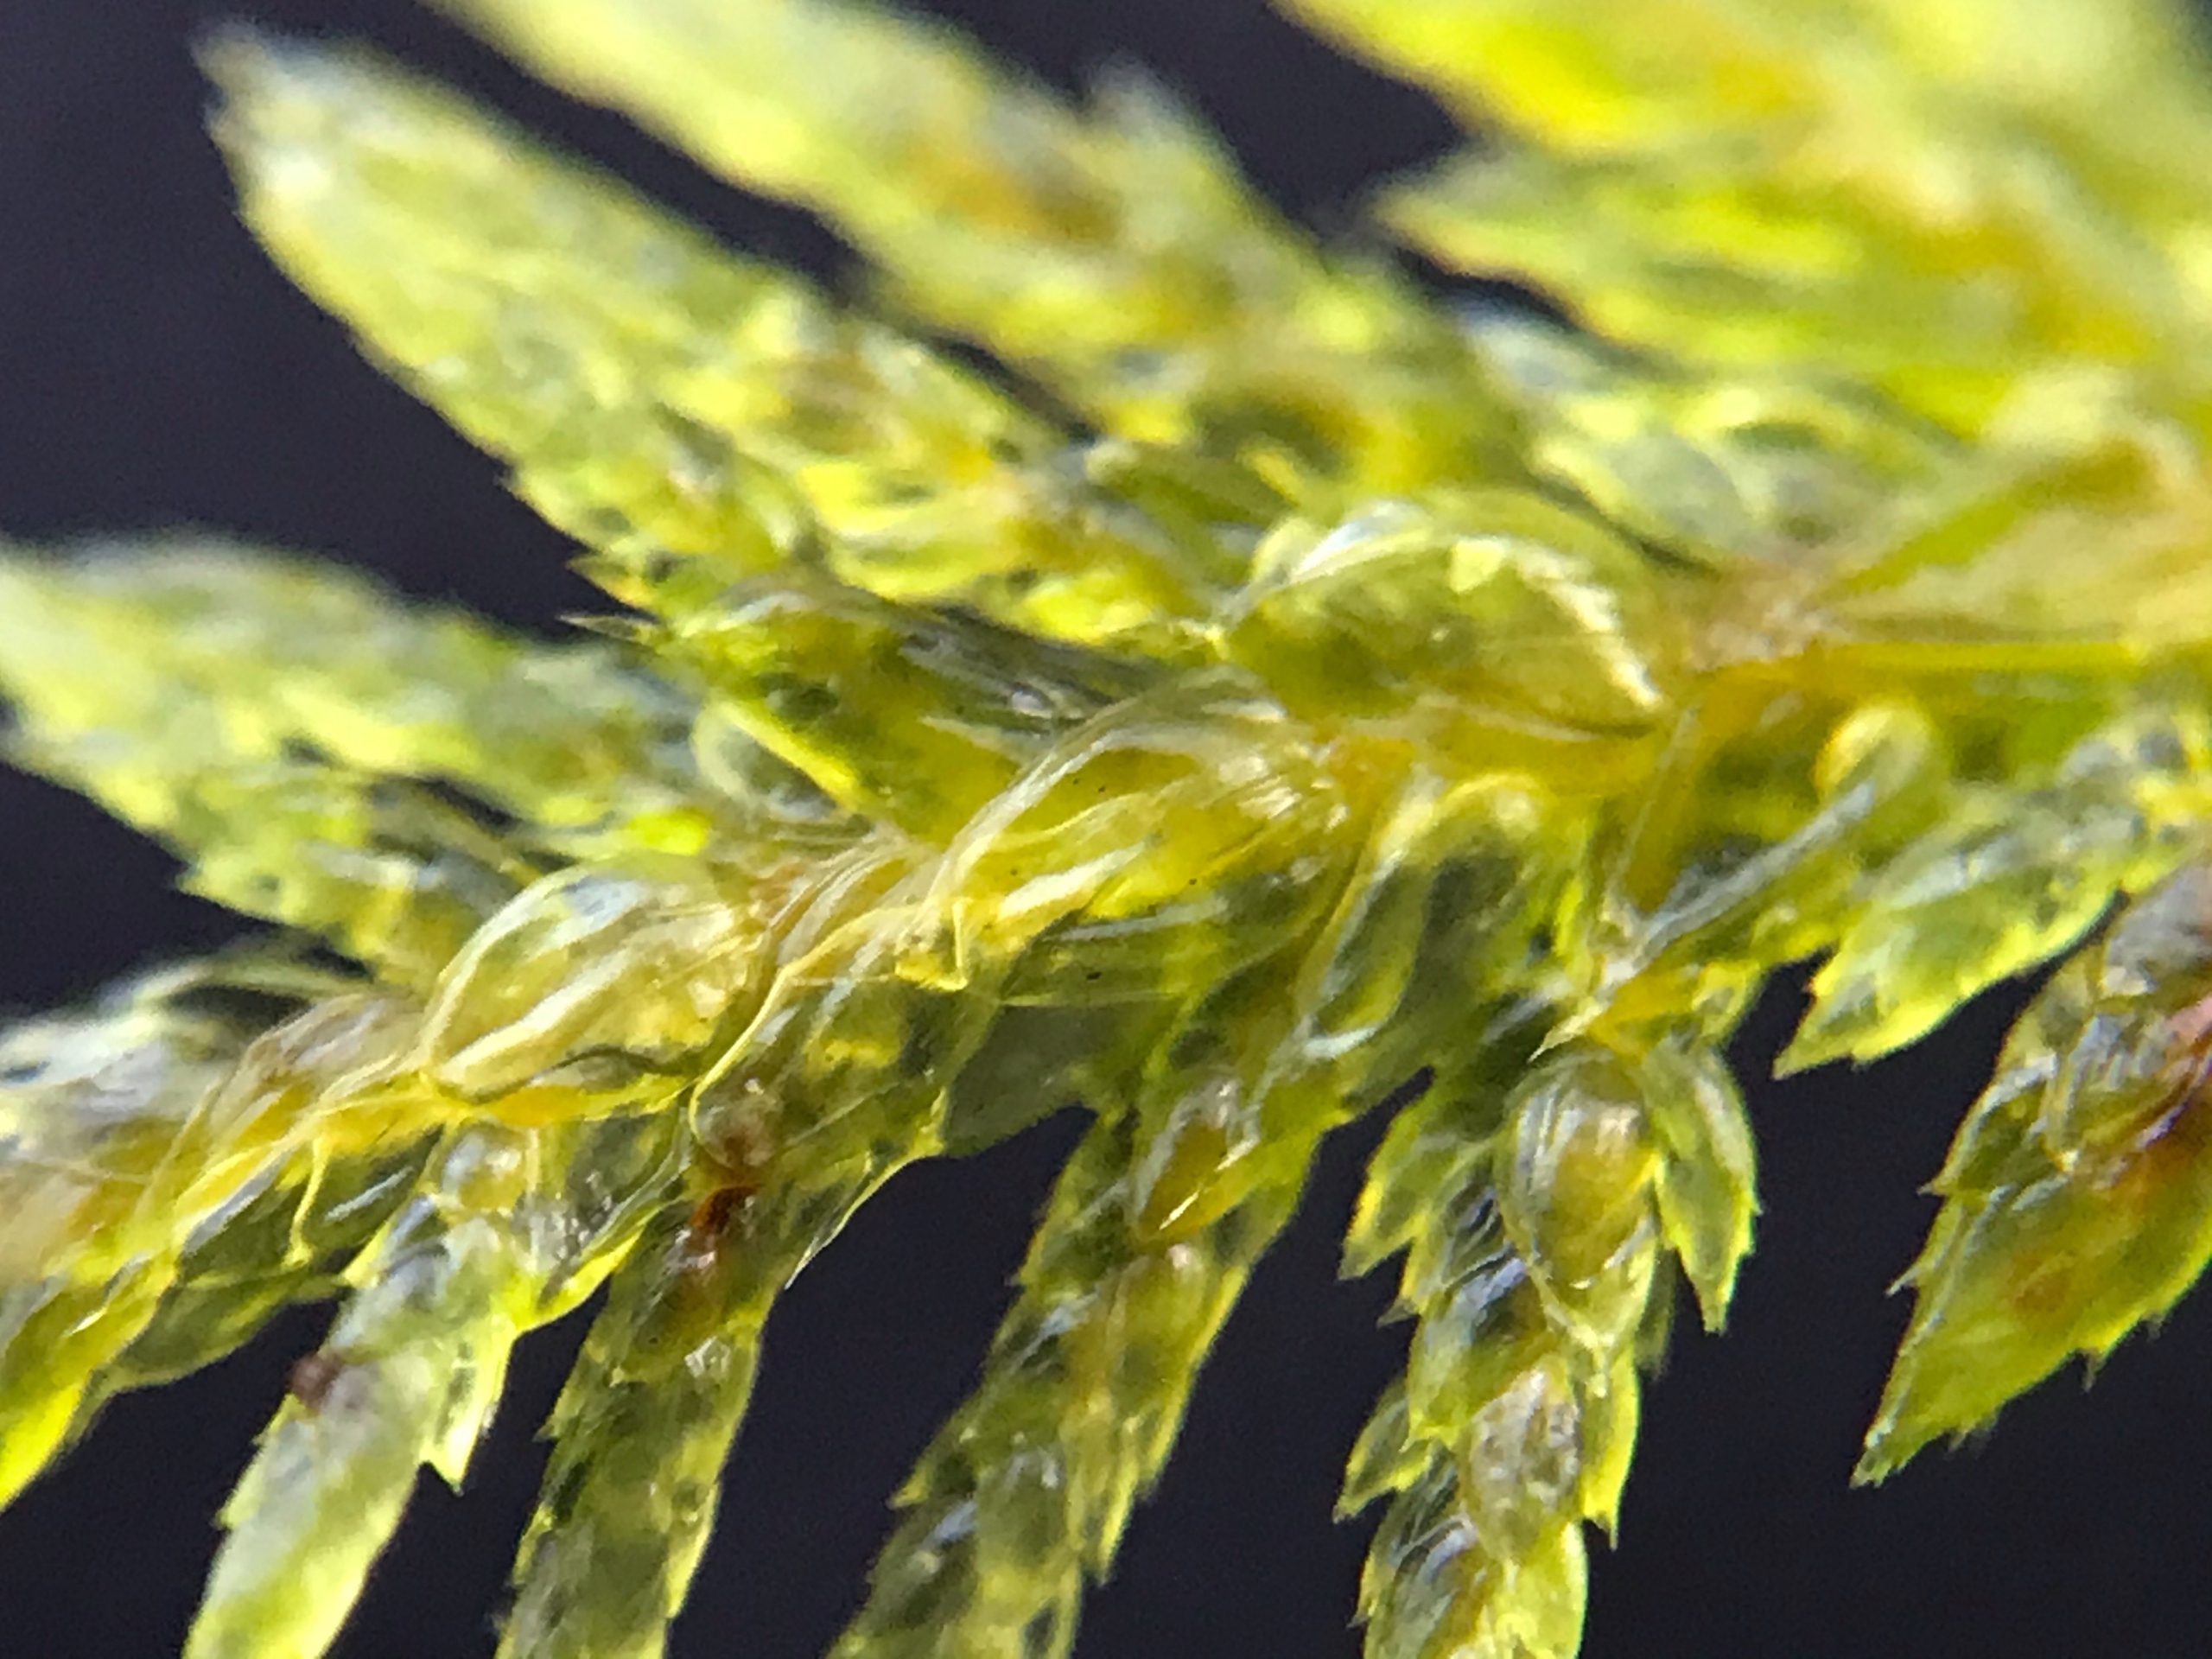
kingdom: Plantae
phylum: Bryophyta
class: Bryopsida
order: Hypnales
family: Hylocomiaceae
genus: Hylocomium
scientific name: Hylocomium splendens
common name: Almindelig etagemos
